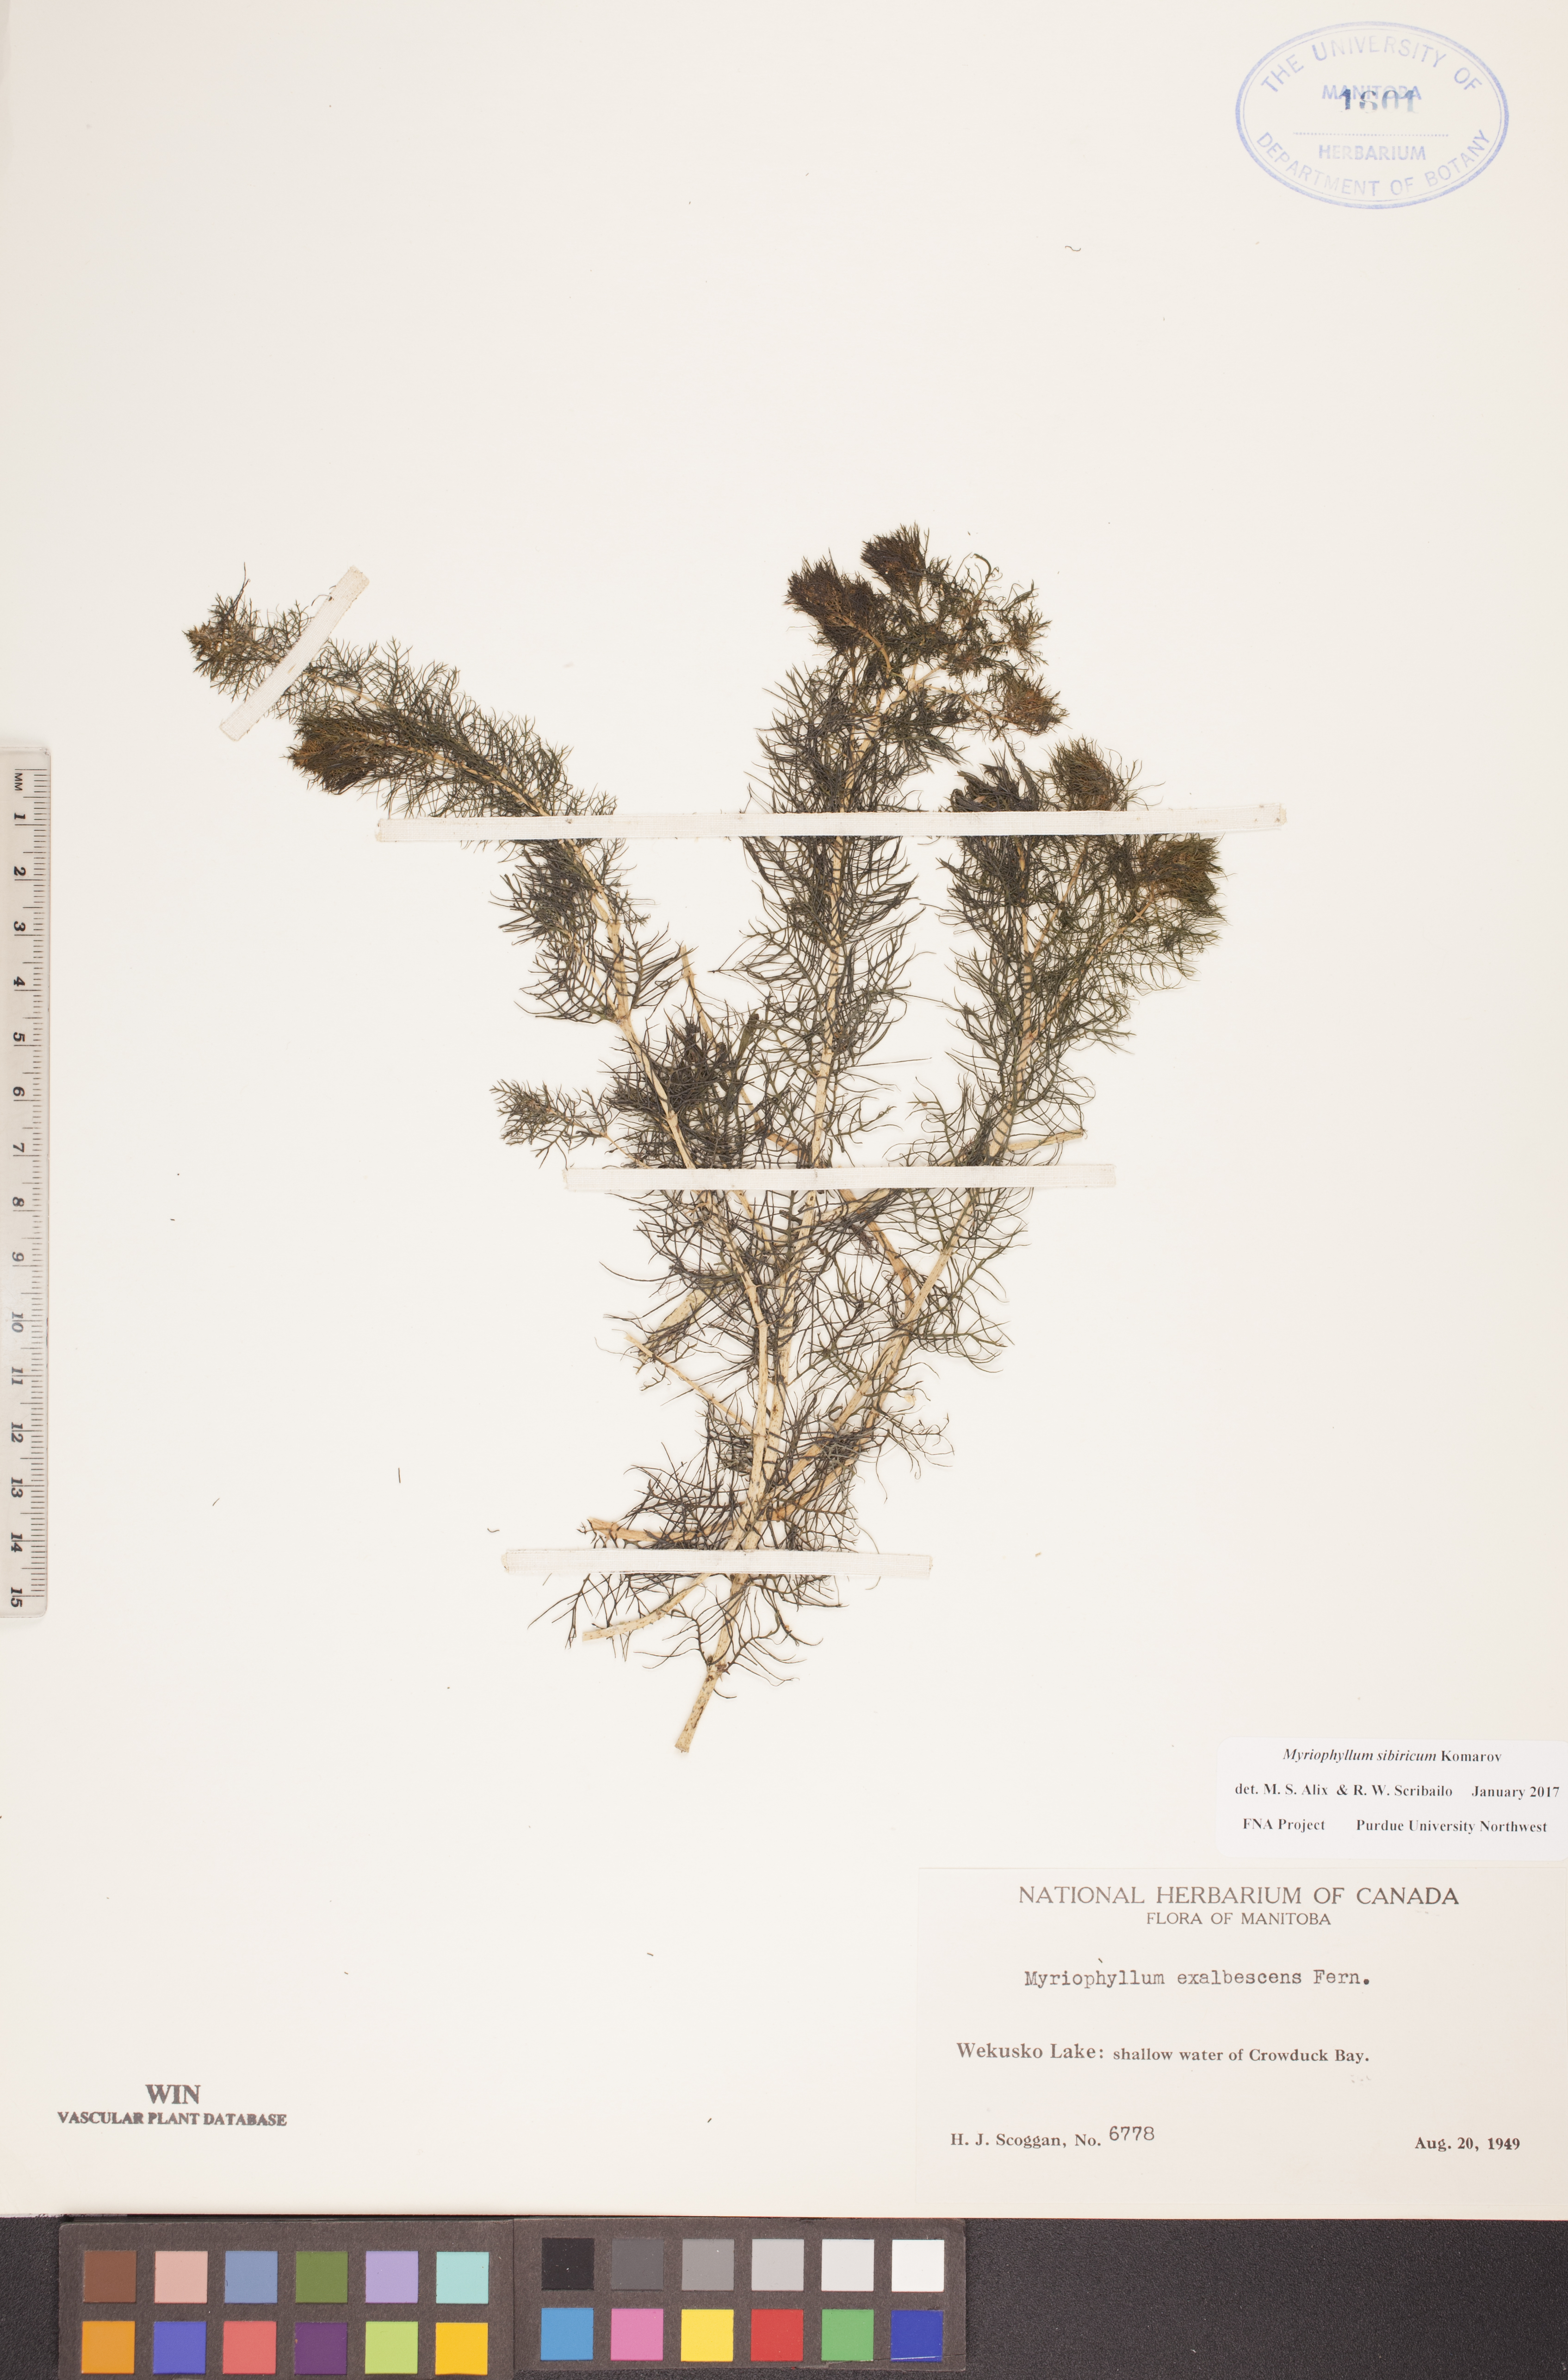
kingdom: Plantae
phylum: Tracheophyta
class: Magnoliopsida
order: Saxifragales
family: Haloragaceae
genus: Myriophyllum
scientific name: Myriophyllum sibiricum
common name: Siberian water-milfoil
